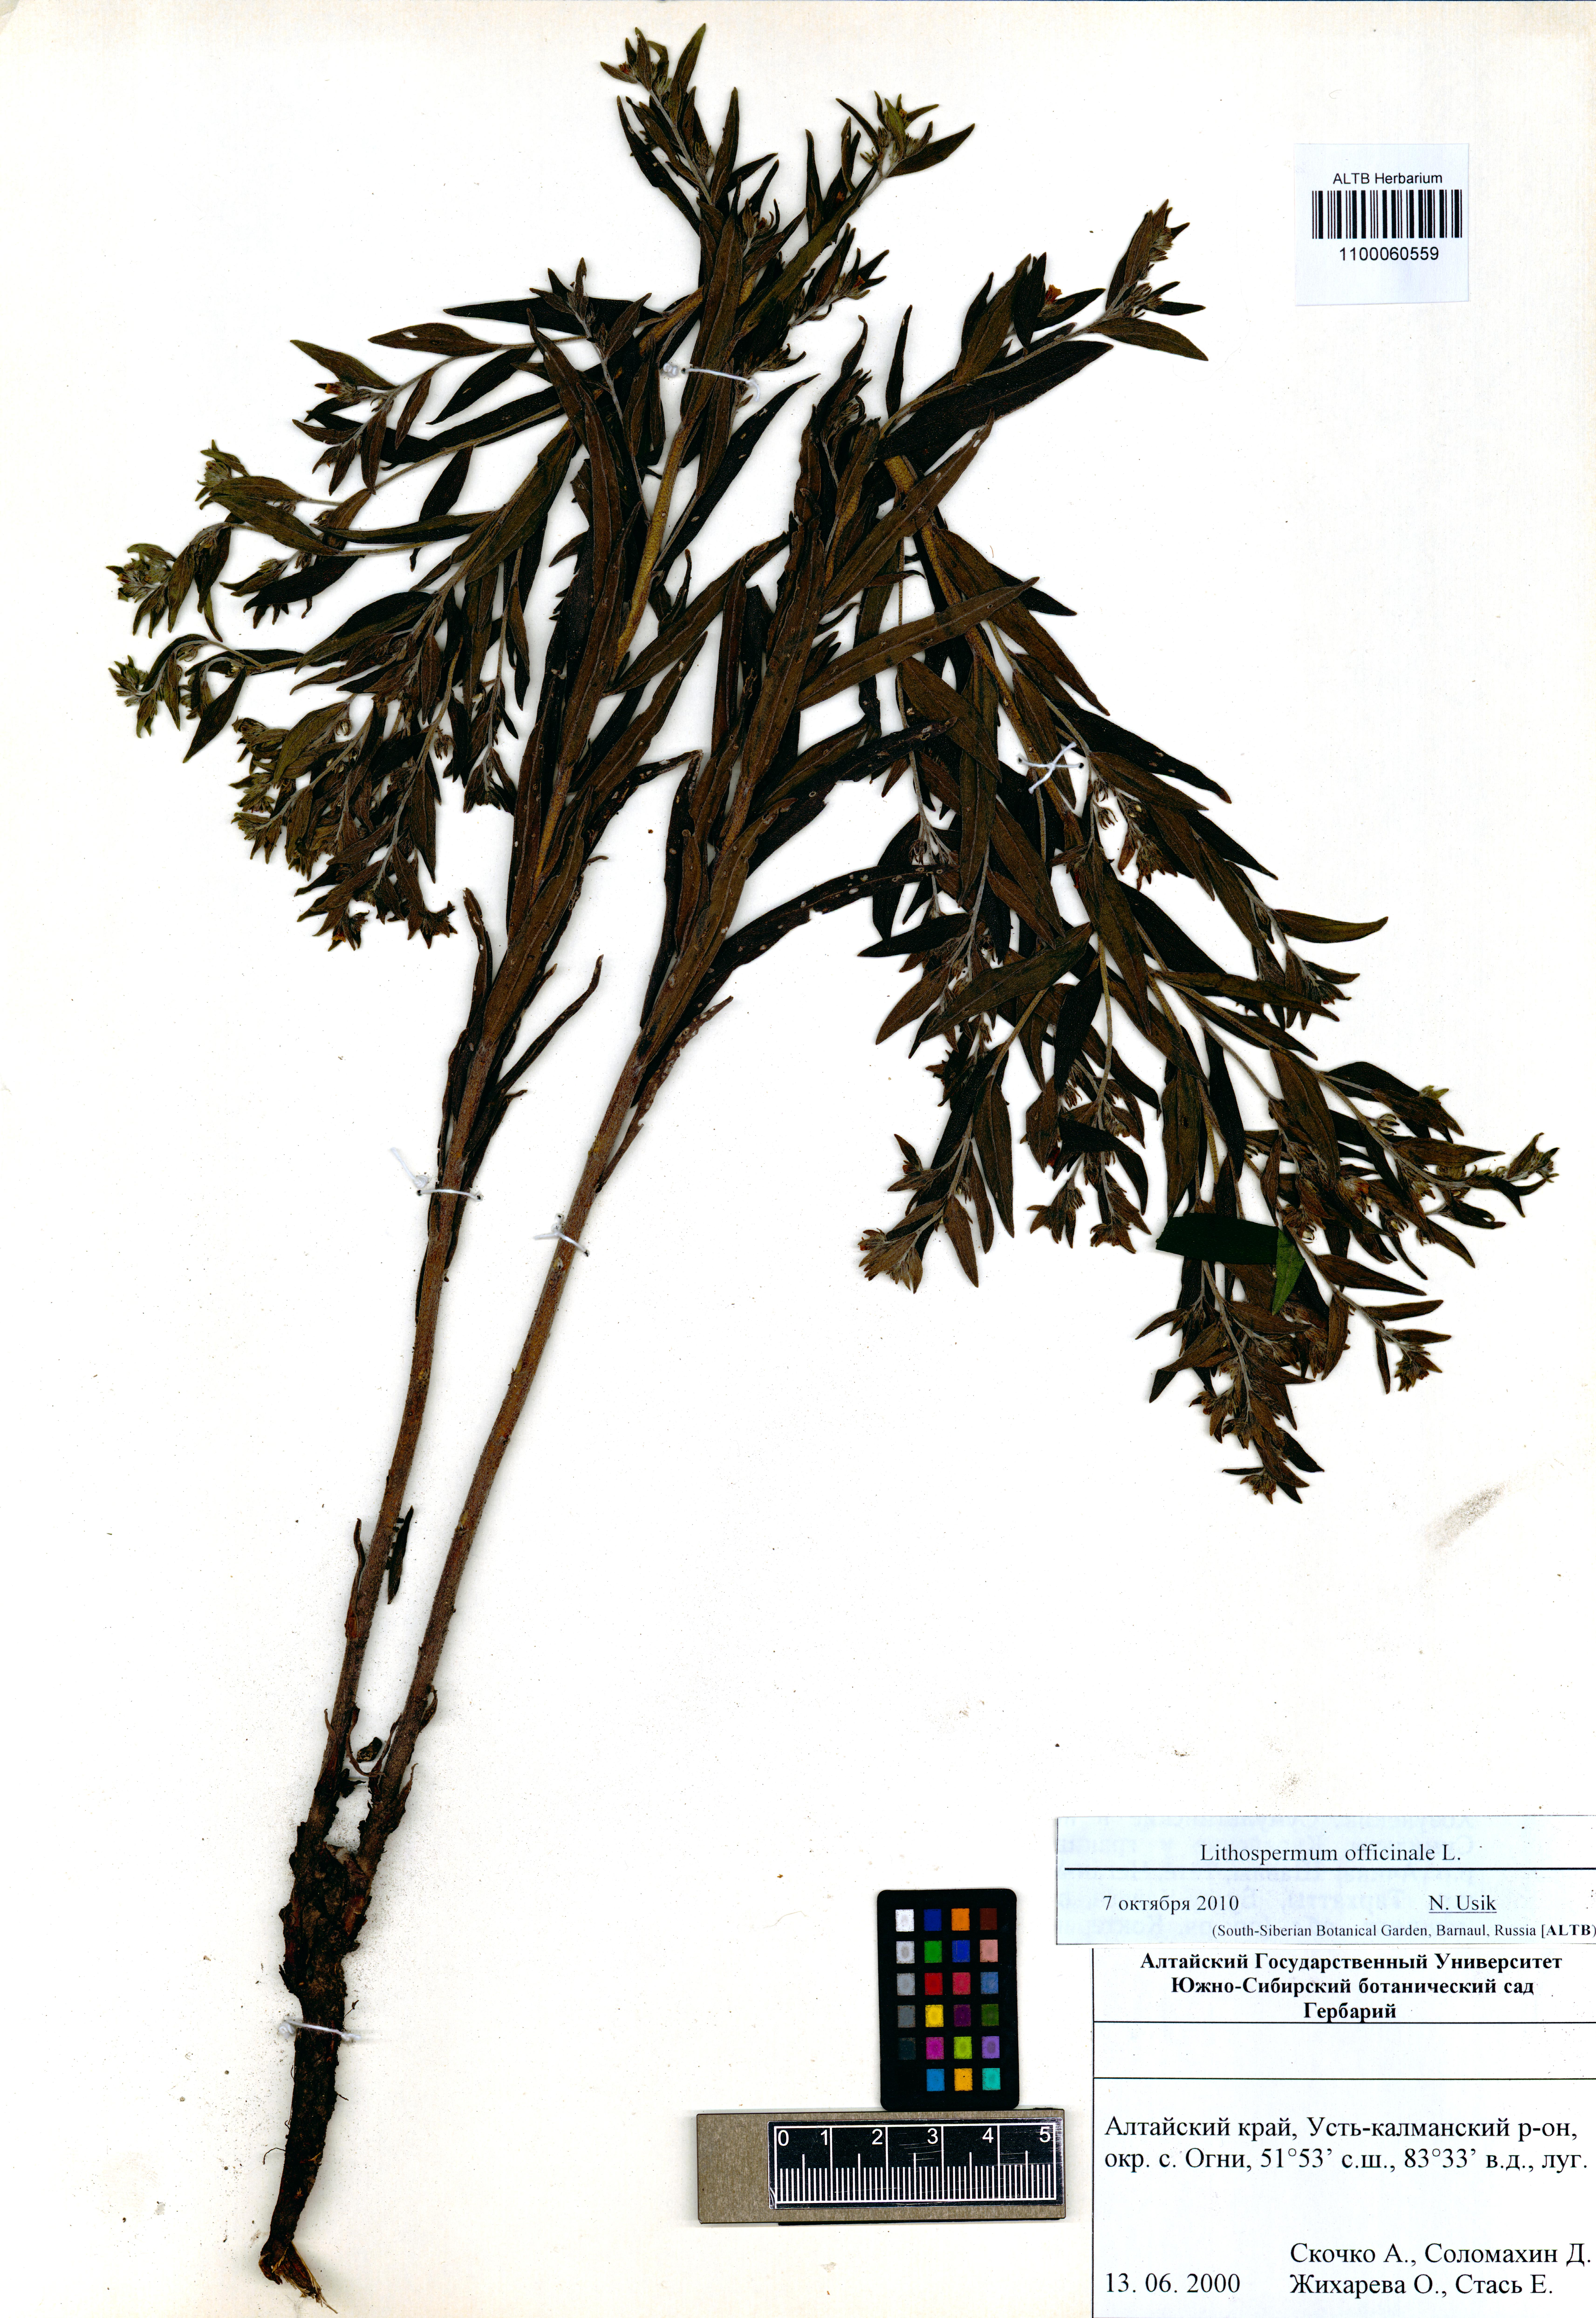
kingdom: Plantae
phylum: Tracheophyta
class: Liliopsida
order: Asparagales
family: Amaryllidaceae
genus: Allium
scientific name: Allium tulipifolium
